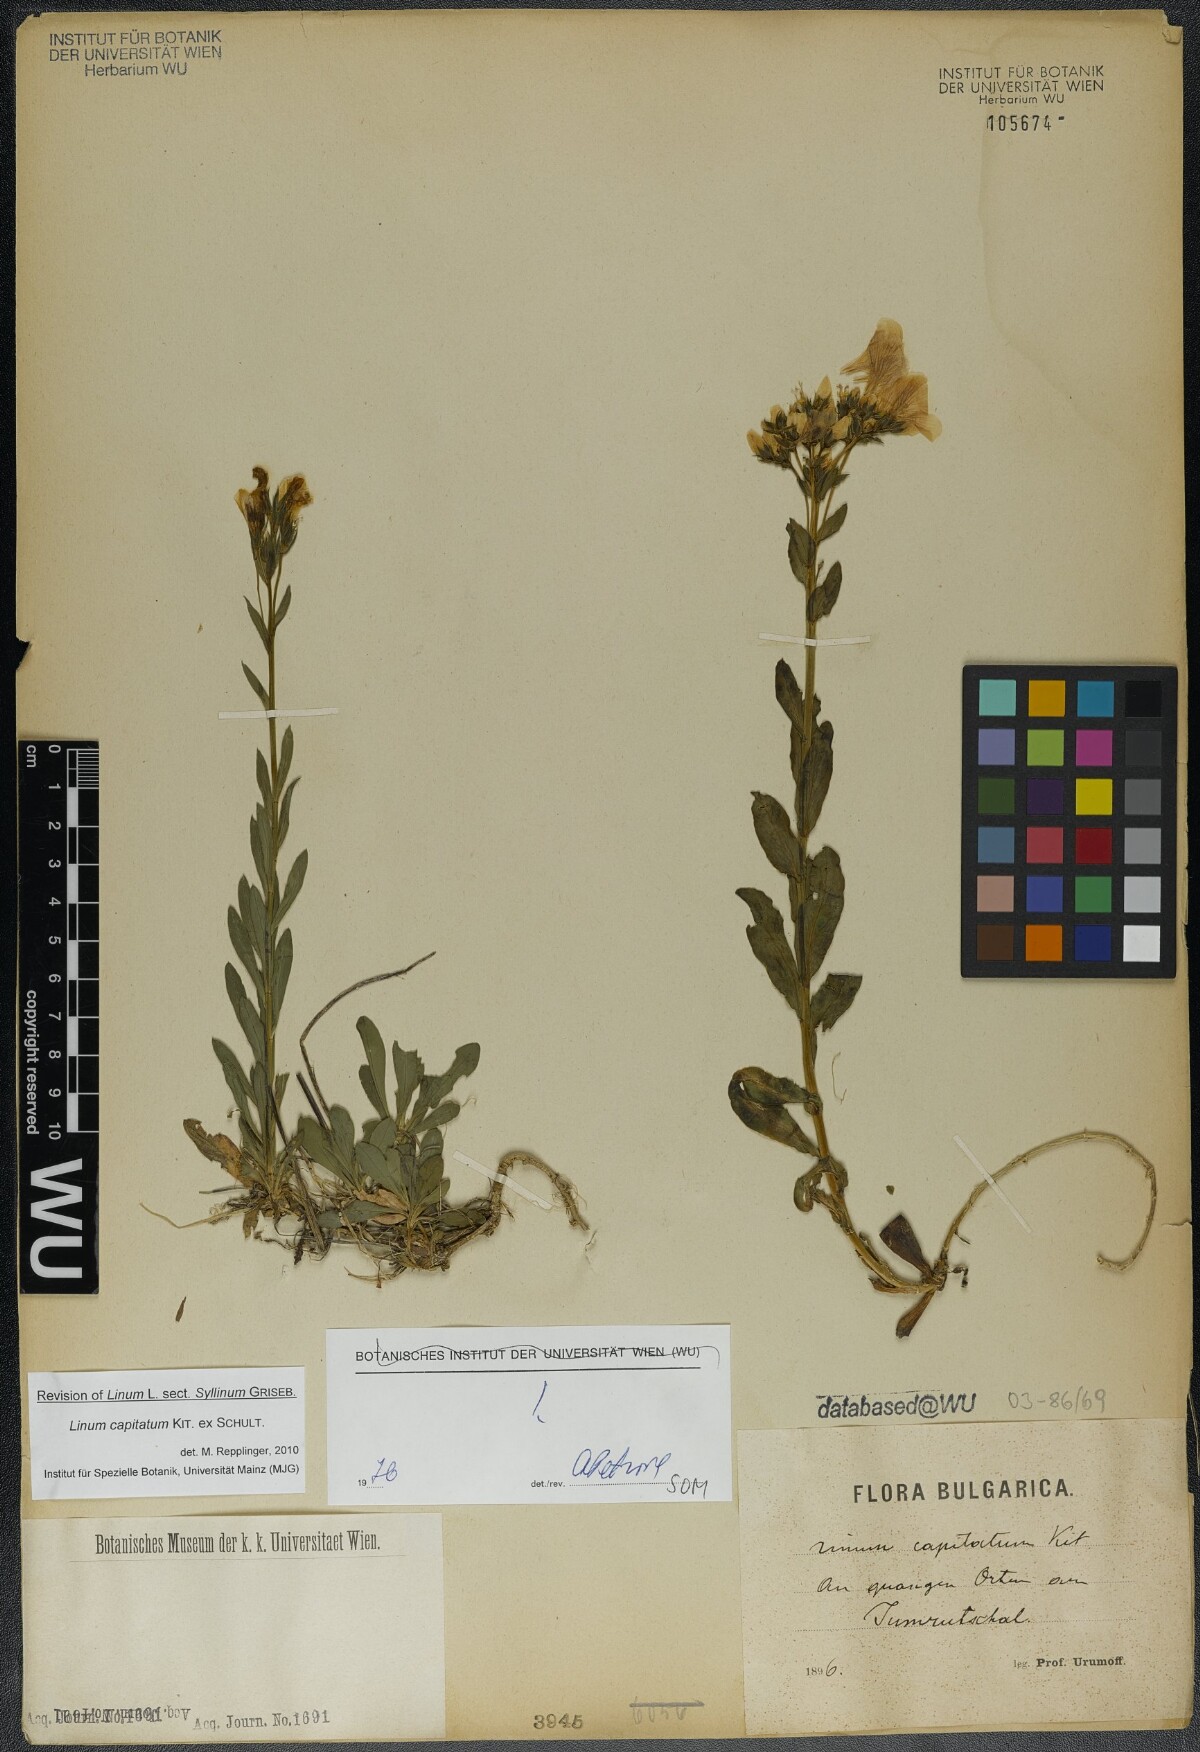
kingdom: Plantae
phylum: Tracheophyta
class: Magnoliopsida
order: Malpighiales
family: Linaceae
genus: Linum
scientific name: Linum capitatum
